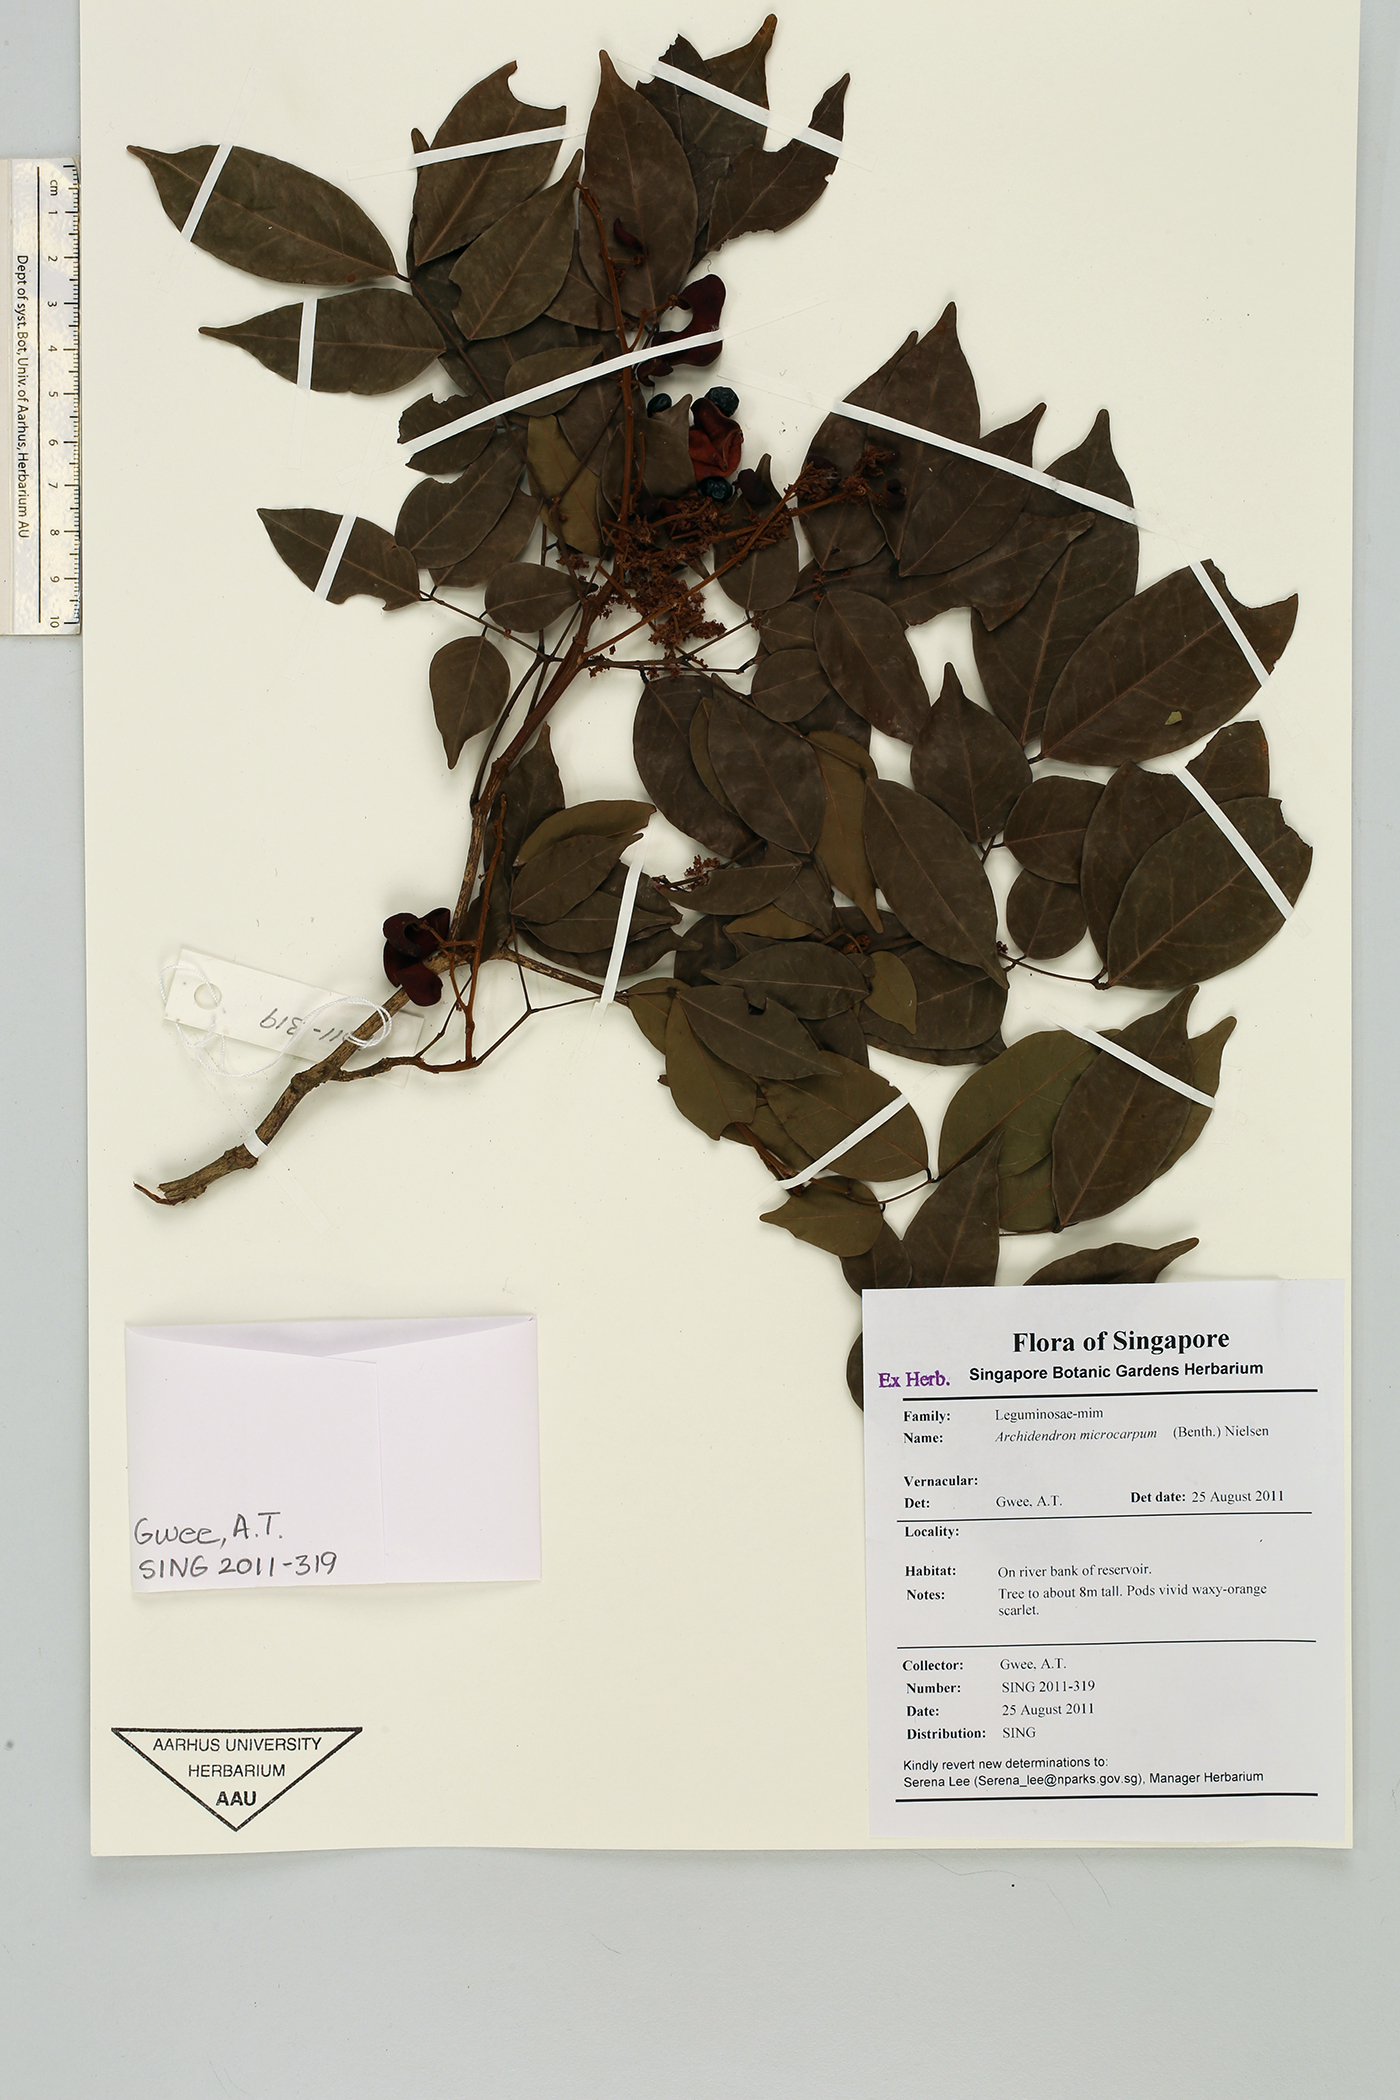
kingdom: Plantae
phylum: Tracheophyta
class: Magnoliopsida
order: Fabales
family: Fabaceae
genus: Archidendron
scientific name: Archidendron microcarpum
